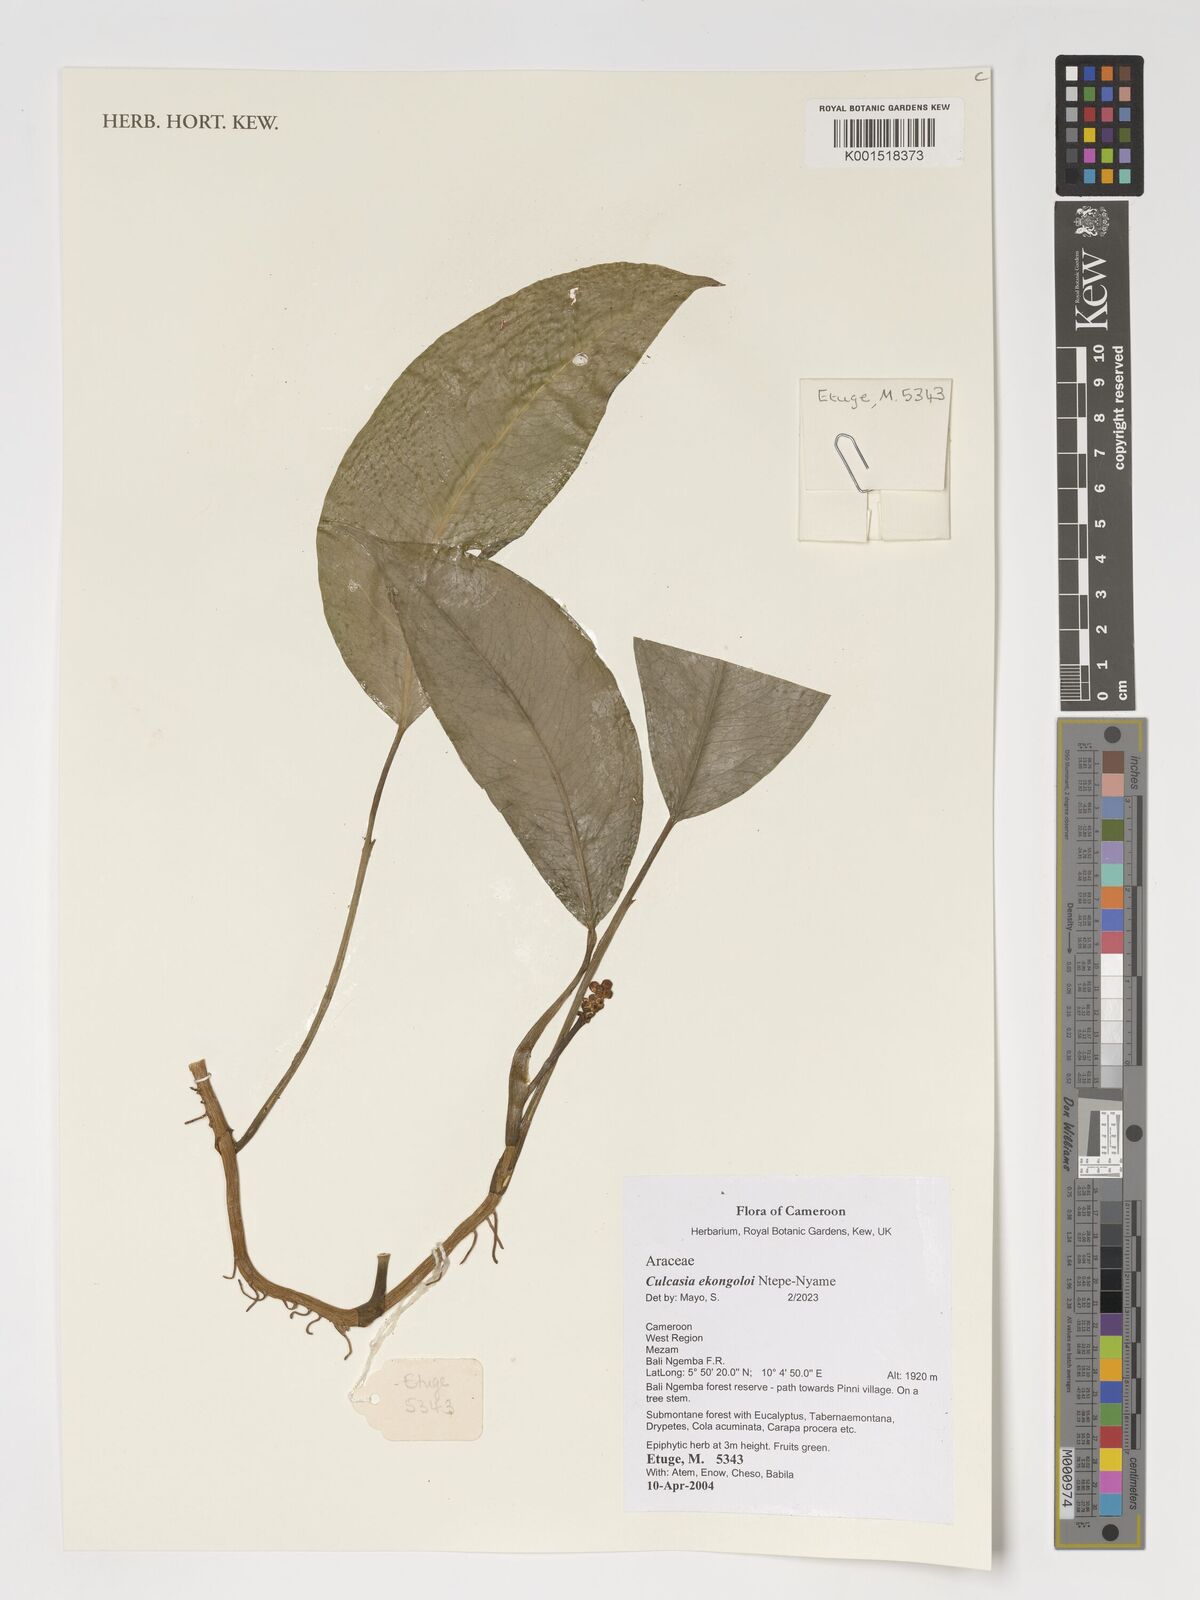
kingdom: Plantae
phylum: Tracheophyta
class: Liliopsida
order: Alismatales
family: Araceae
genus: Culcasia
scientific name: Culcasia ekongoloi
